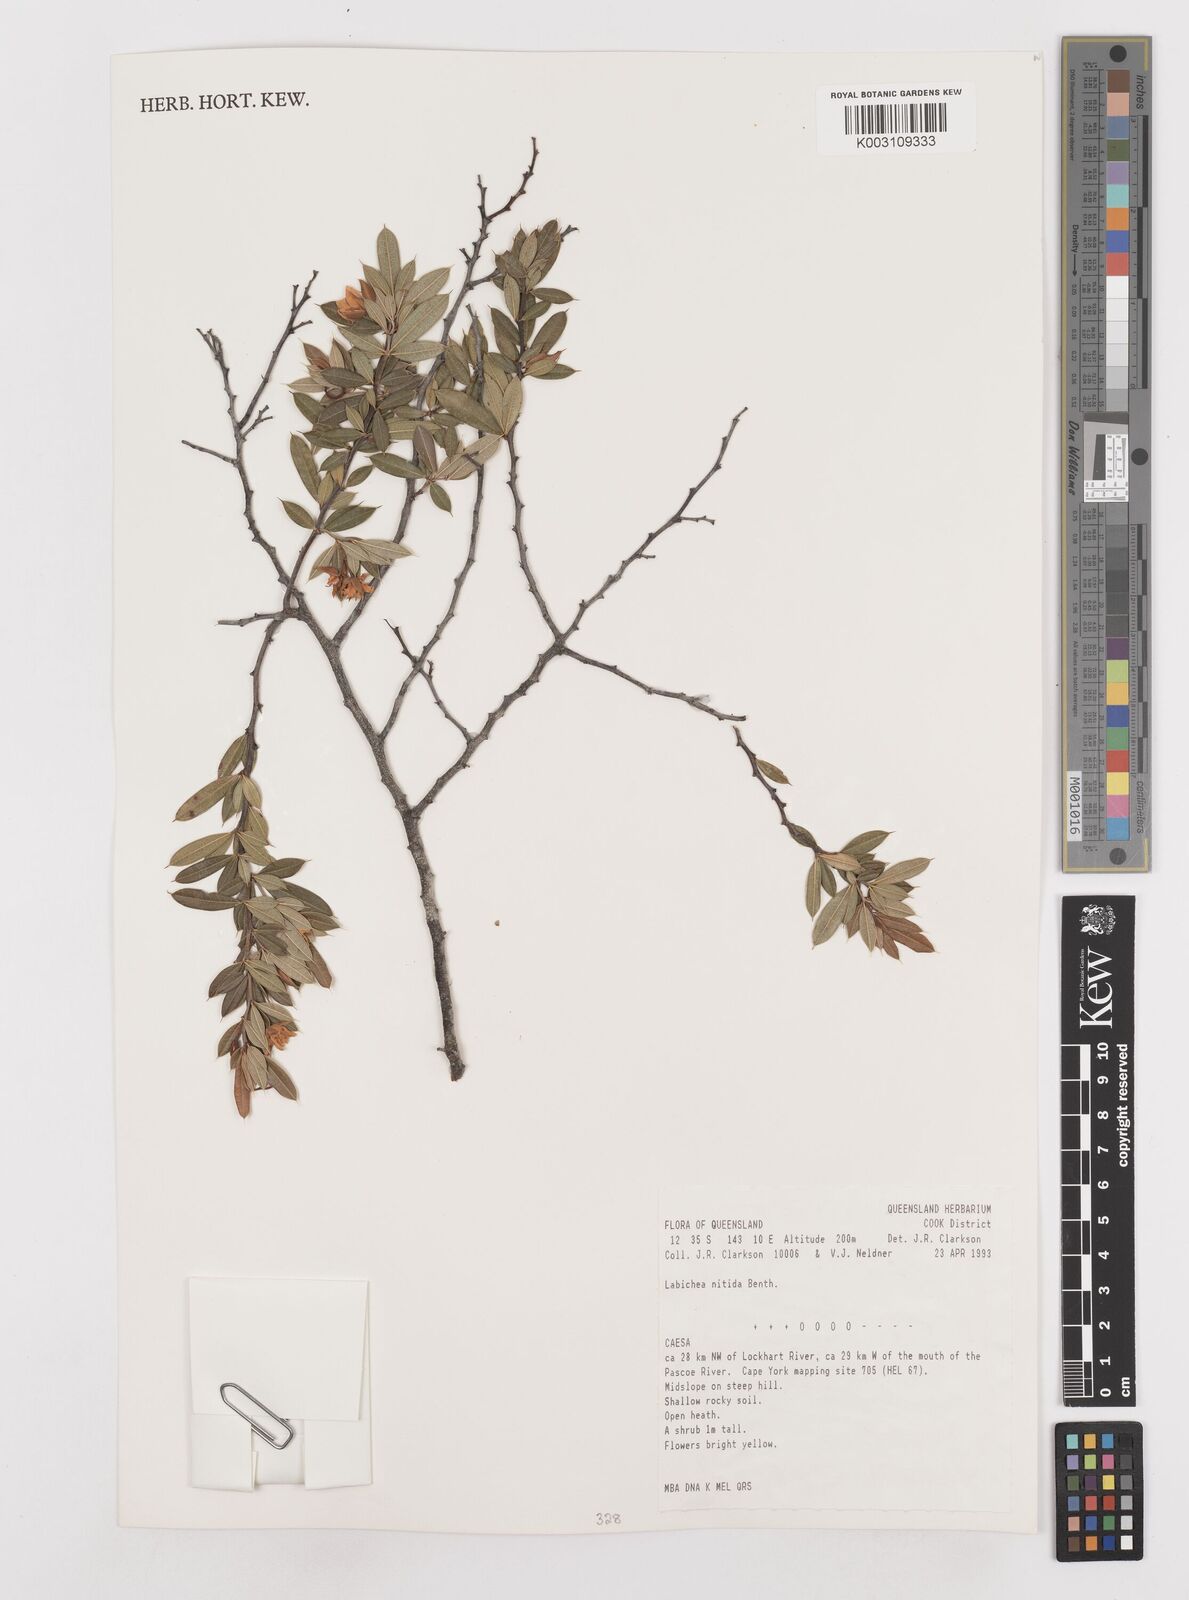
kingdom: Plantae
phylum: Tracheophyta
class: Magnoliopsida
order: Fabales
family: Fabaceae
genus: Labichea
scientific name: Labichea brassii
